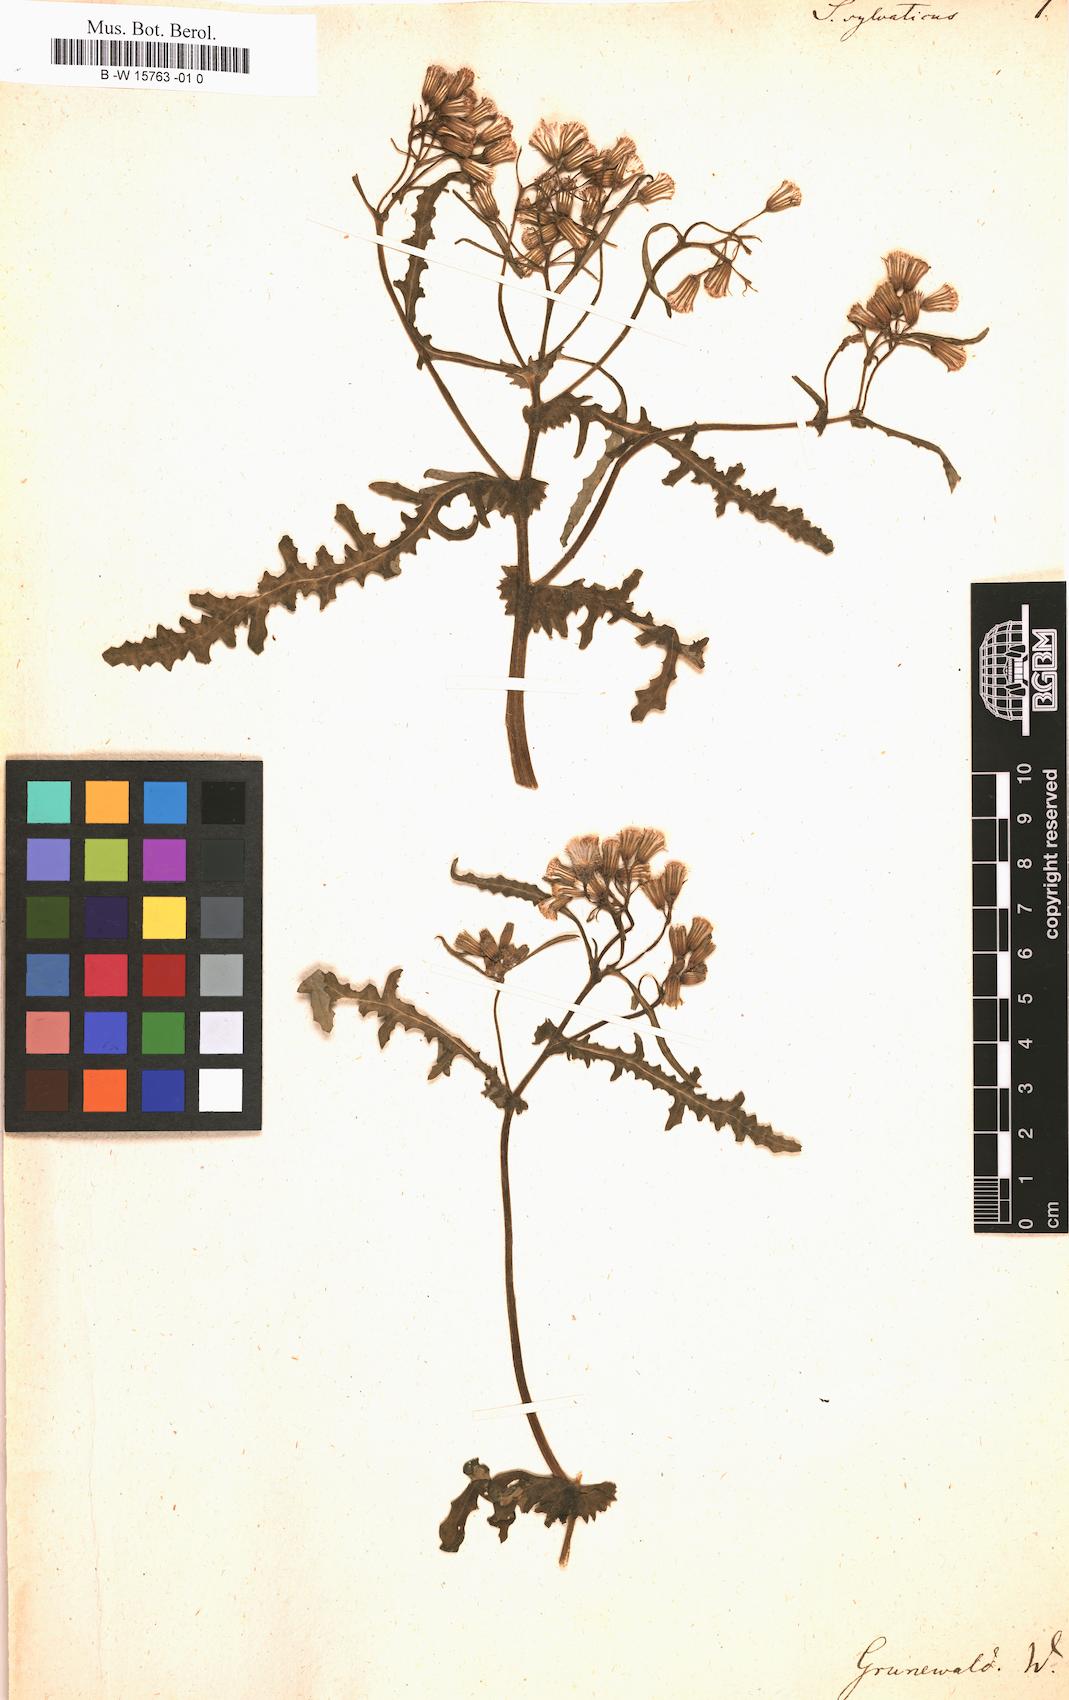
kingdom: Plantae
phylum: Tracheophyta
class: Magnoliopsida
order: Asterales
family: Asteraceae
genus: Senecio
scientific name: Senecio sylvaticus
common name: Woodland ragwort
